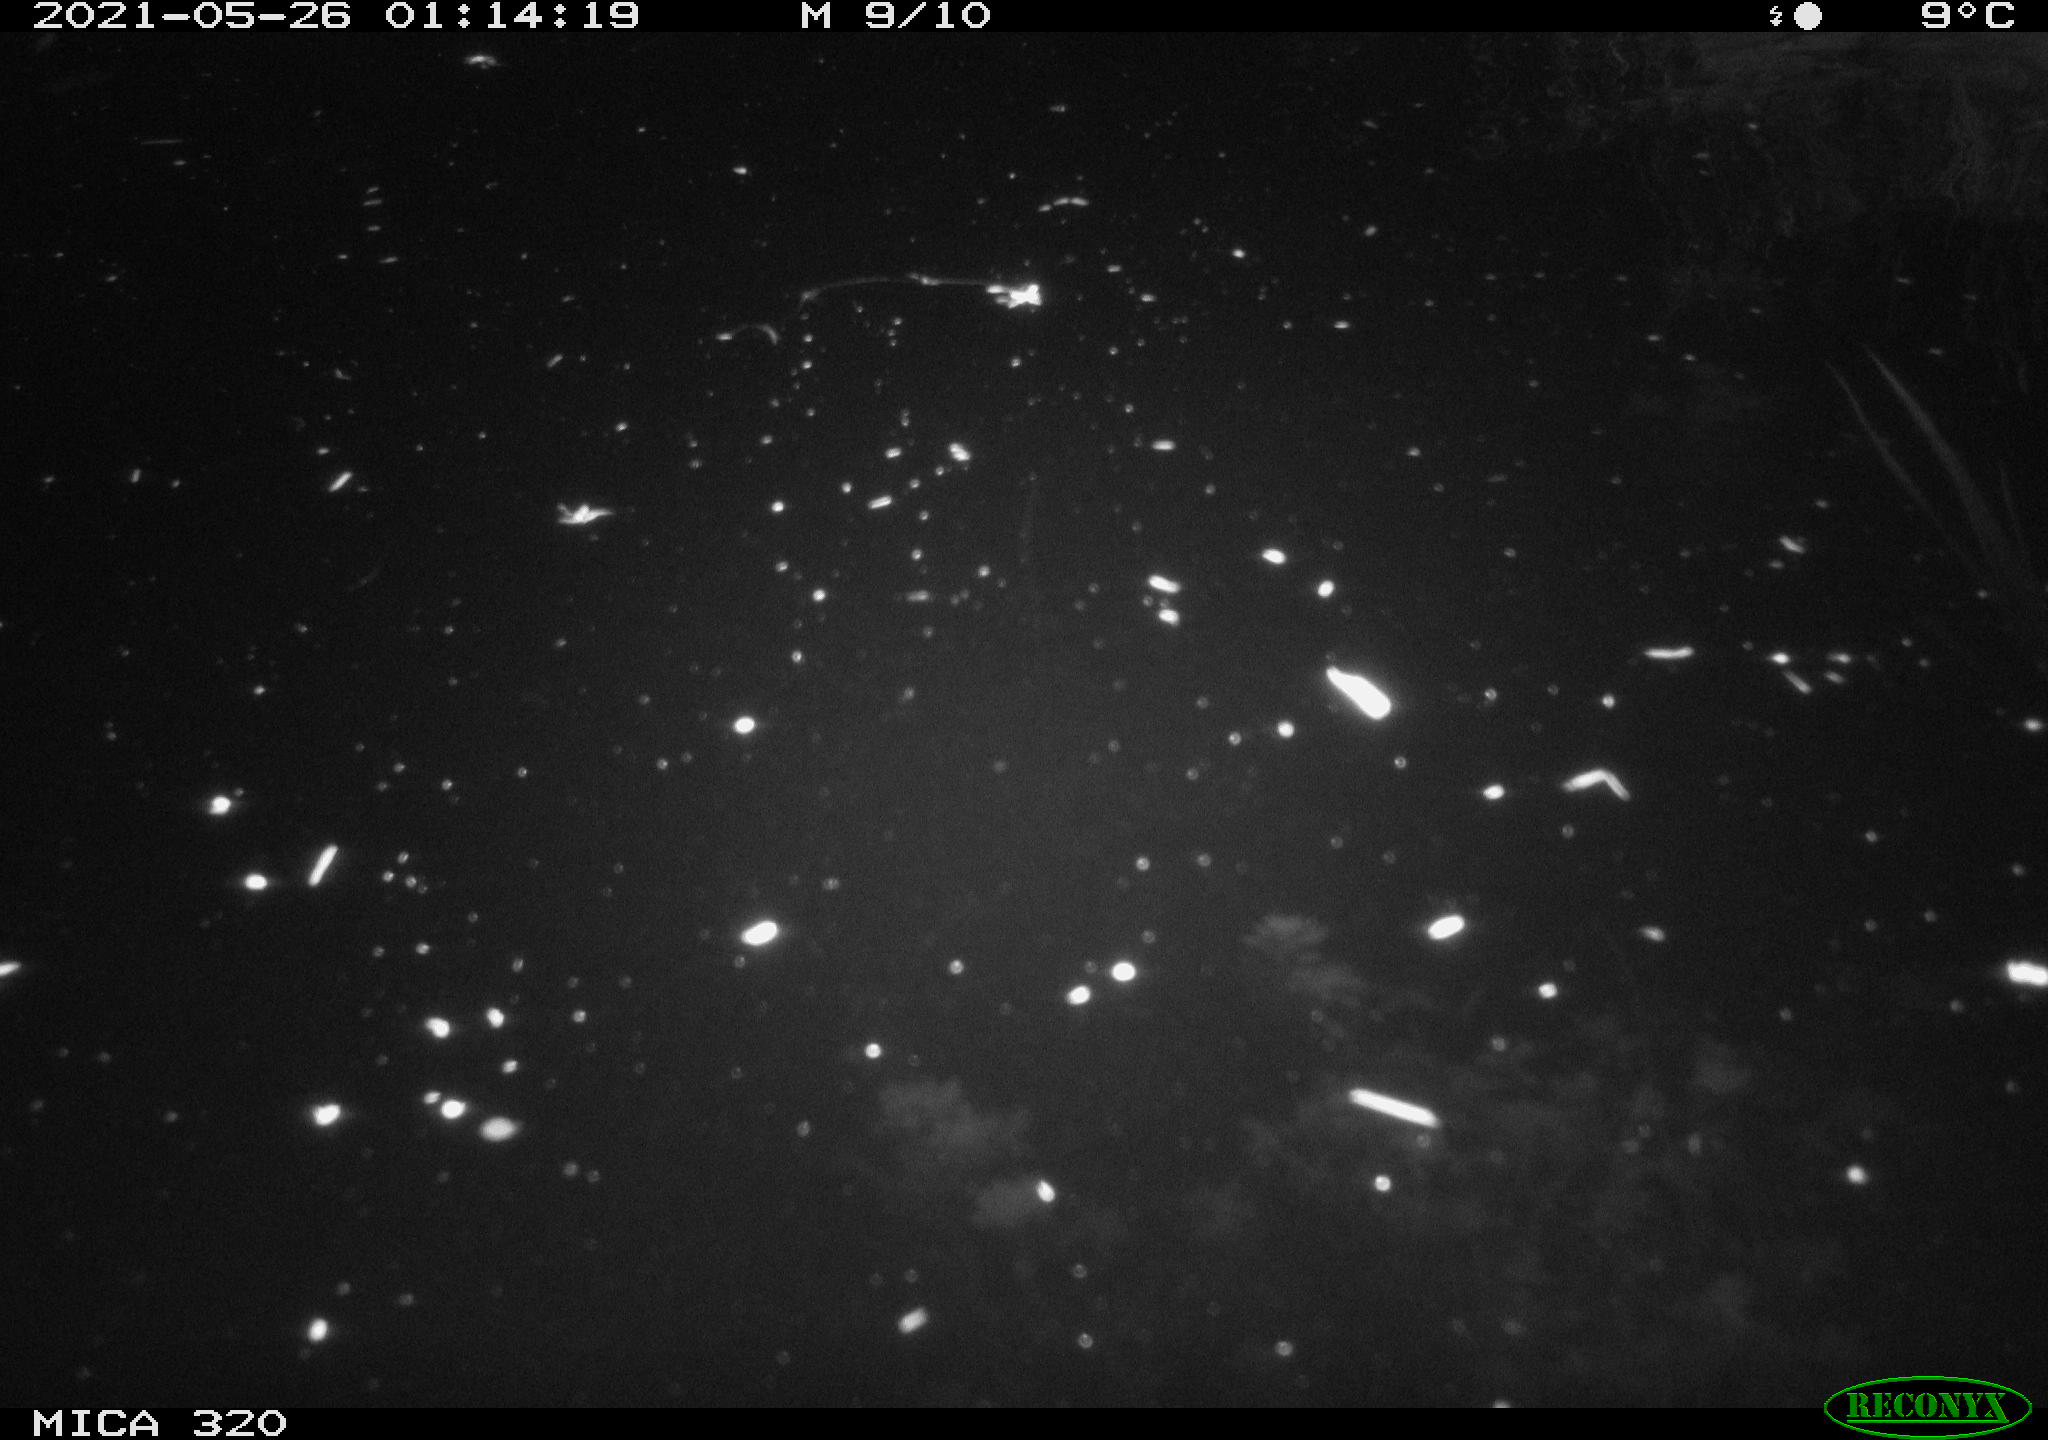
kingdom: Animalia
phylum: Chordata
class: Aves
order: Anseriformes
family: Anatidae
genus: Anas
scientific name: Anas platyrhynchos
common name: Mallard
